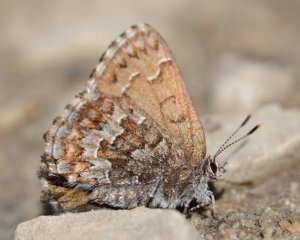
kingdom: Animalia
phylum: Arthropoda
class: Insecta
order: Lepidoptera
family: Lycaenidae
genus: Incisalia
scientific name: Incisalia niphon
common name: Eastern Pine Elfin
